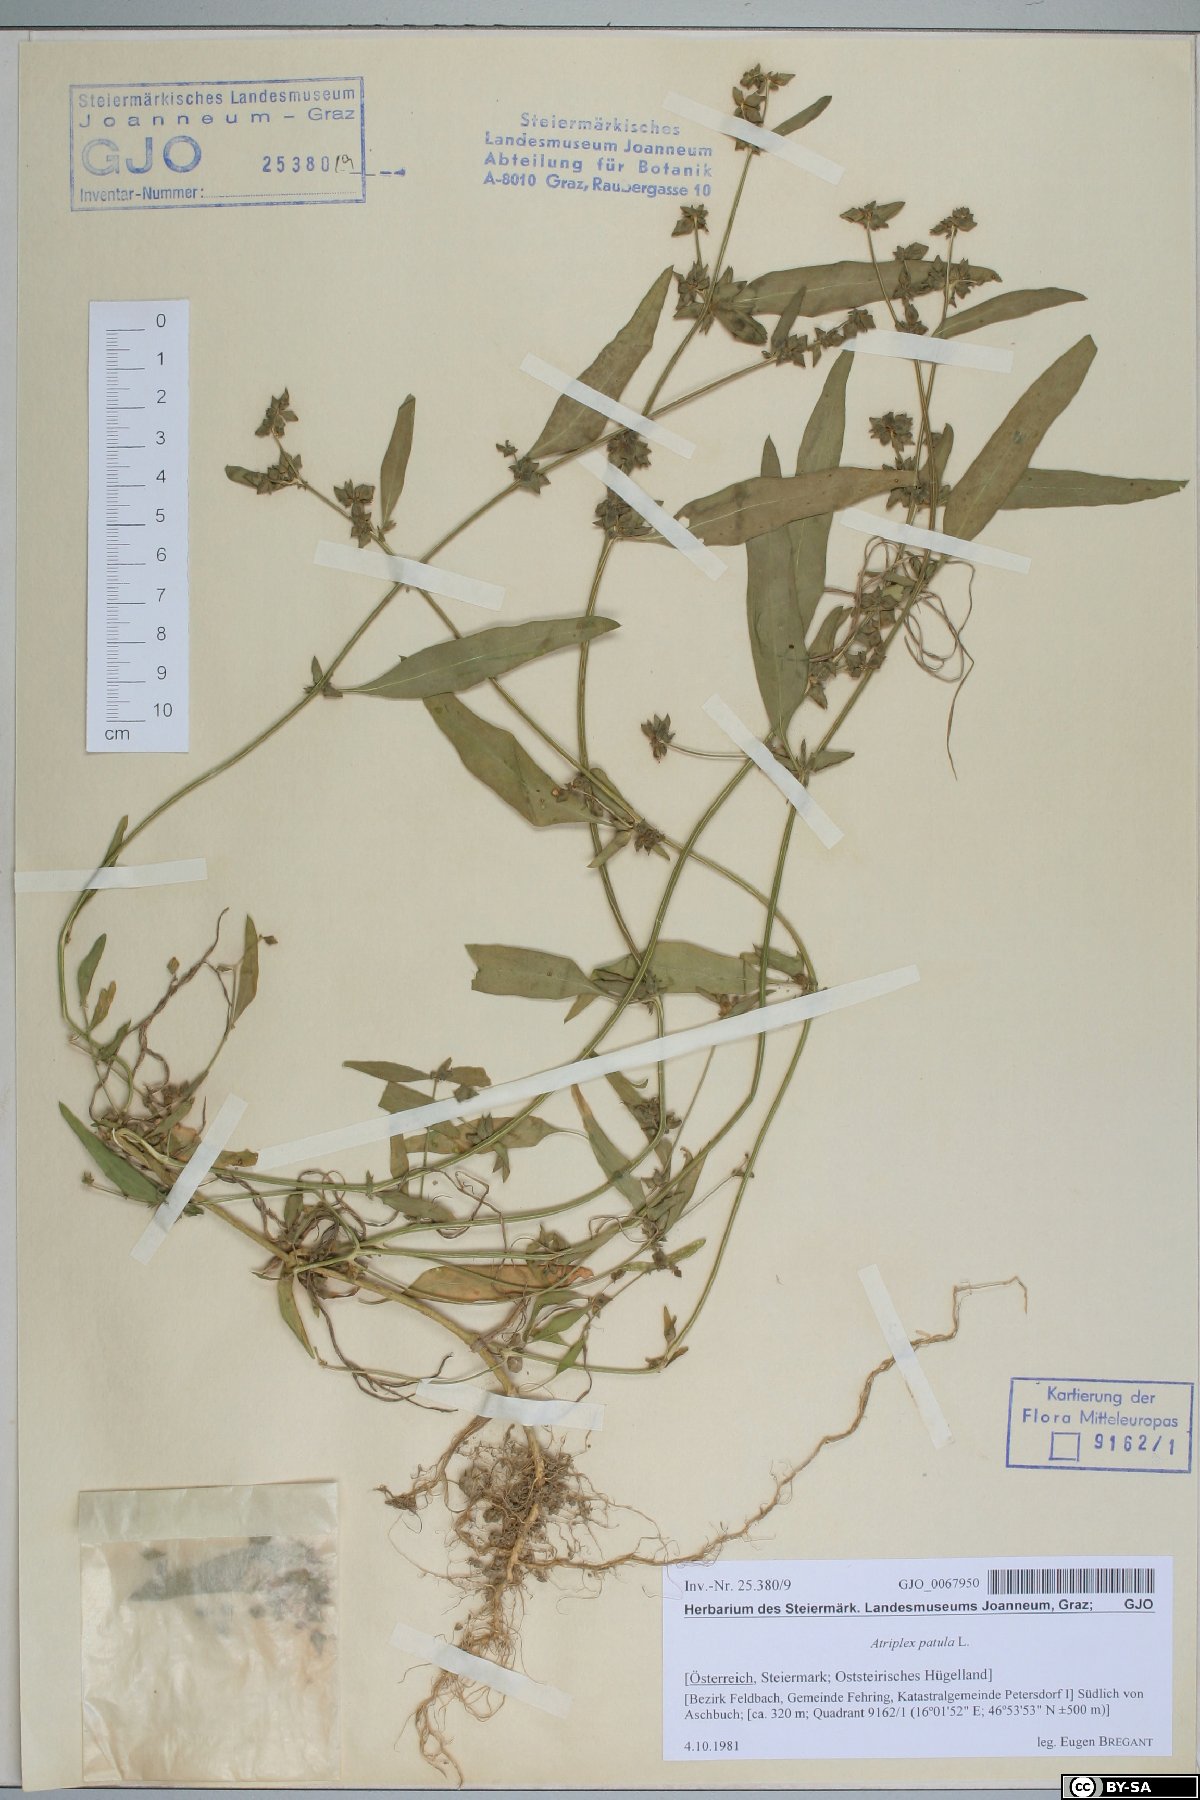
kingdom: Plantae
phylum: Tracheophyta
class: Magnoliopsida
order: Caryophyllales
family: Amaranthaceae
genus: Atriplex
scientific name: Atriplex patula
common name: Common orache
